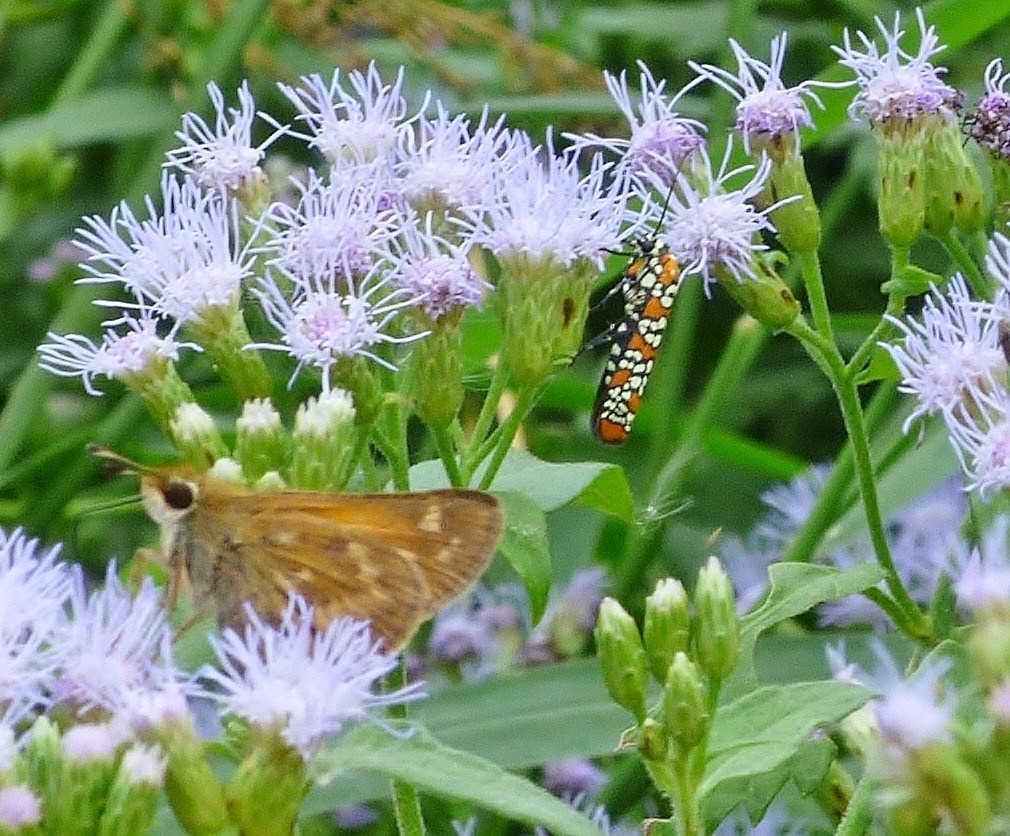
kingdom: Animalia
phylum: Arthropoda
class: Insecta
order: Lepidoptera
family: Hesperiidae
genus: Atalopedes
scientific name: Atalopedes campestris
